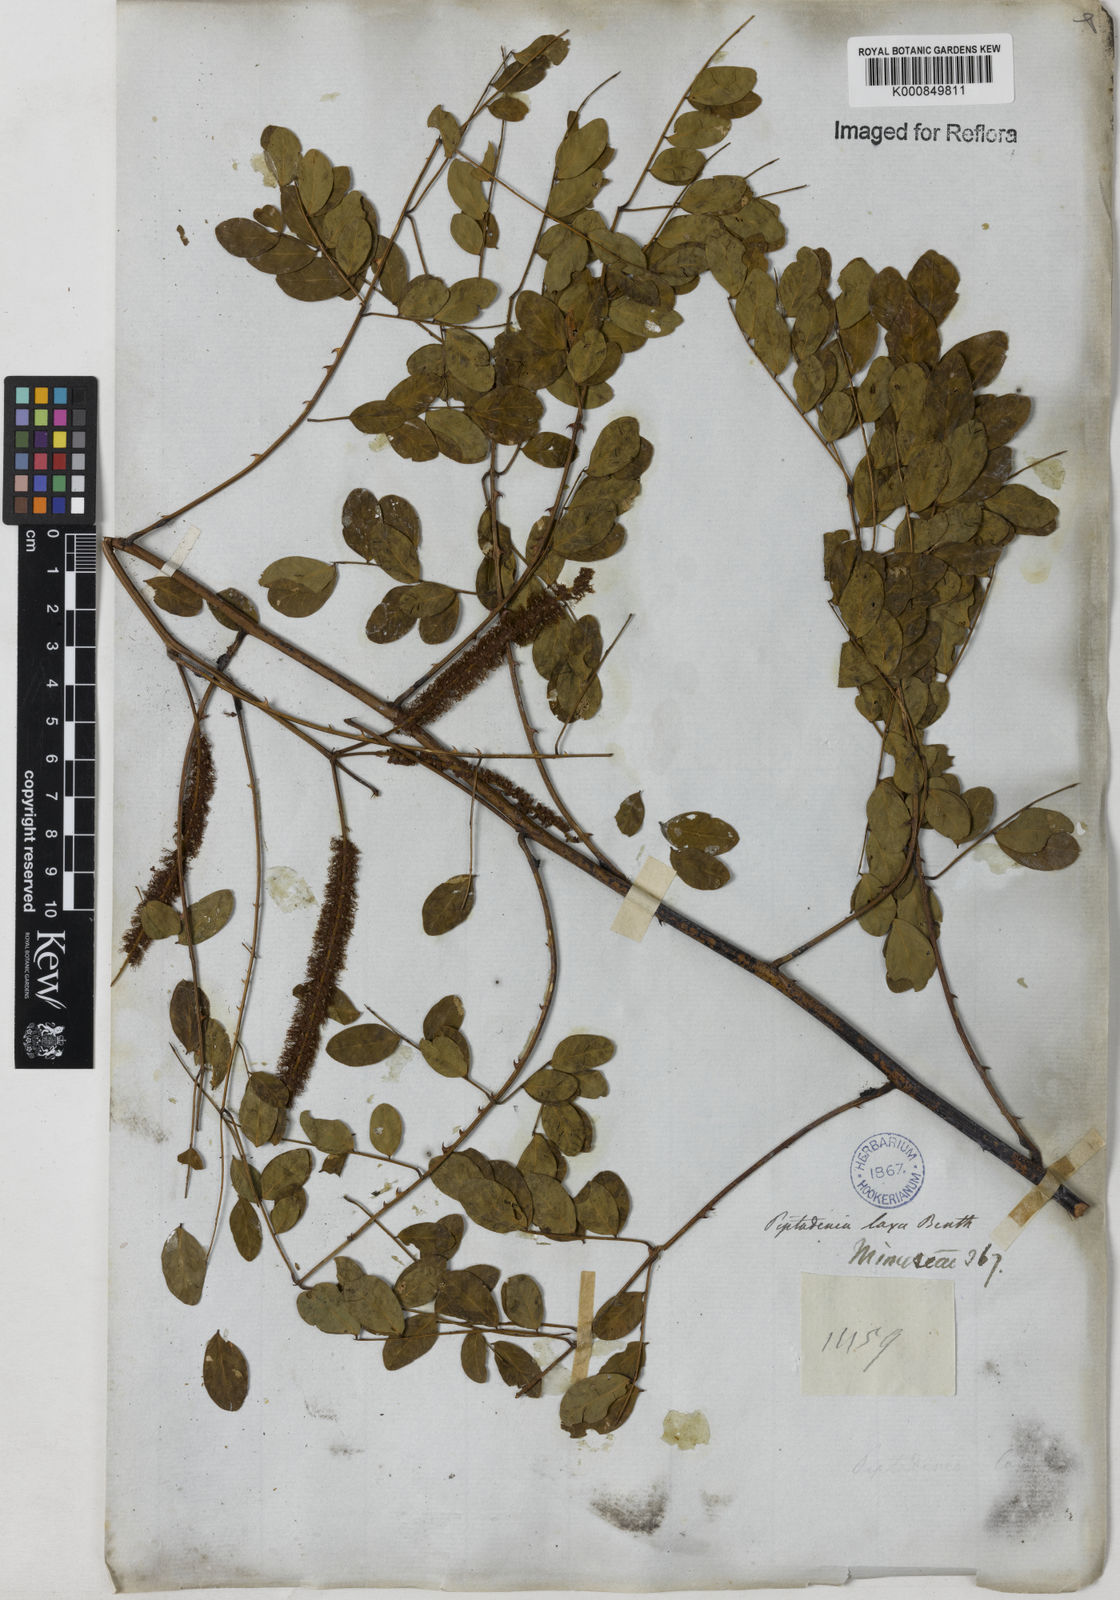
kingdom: Plantae
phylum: Tracheophyta
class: Magnoliopsida
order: Fabales
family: Fabaceae
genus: Piptadenia
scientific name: Piptadenia adiantoides
